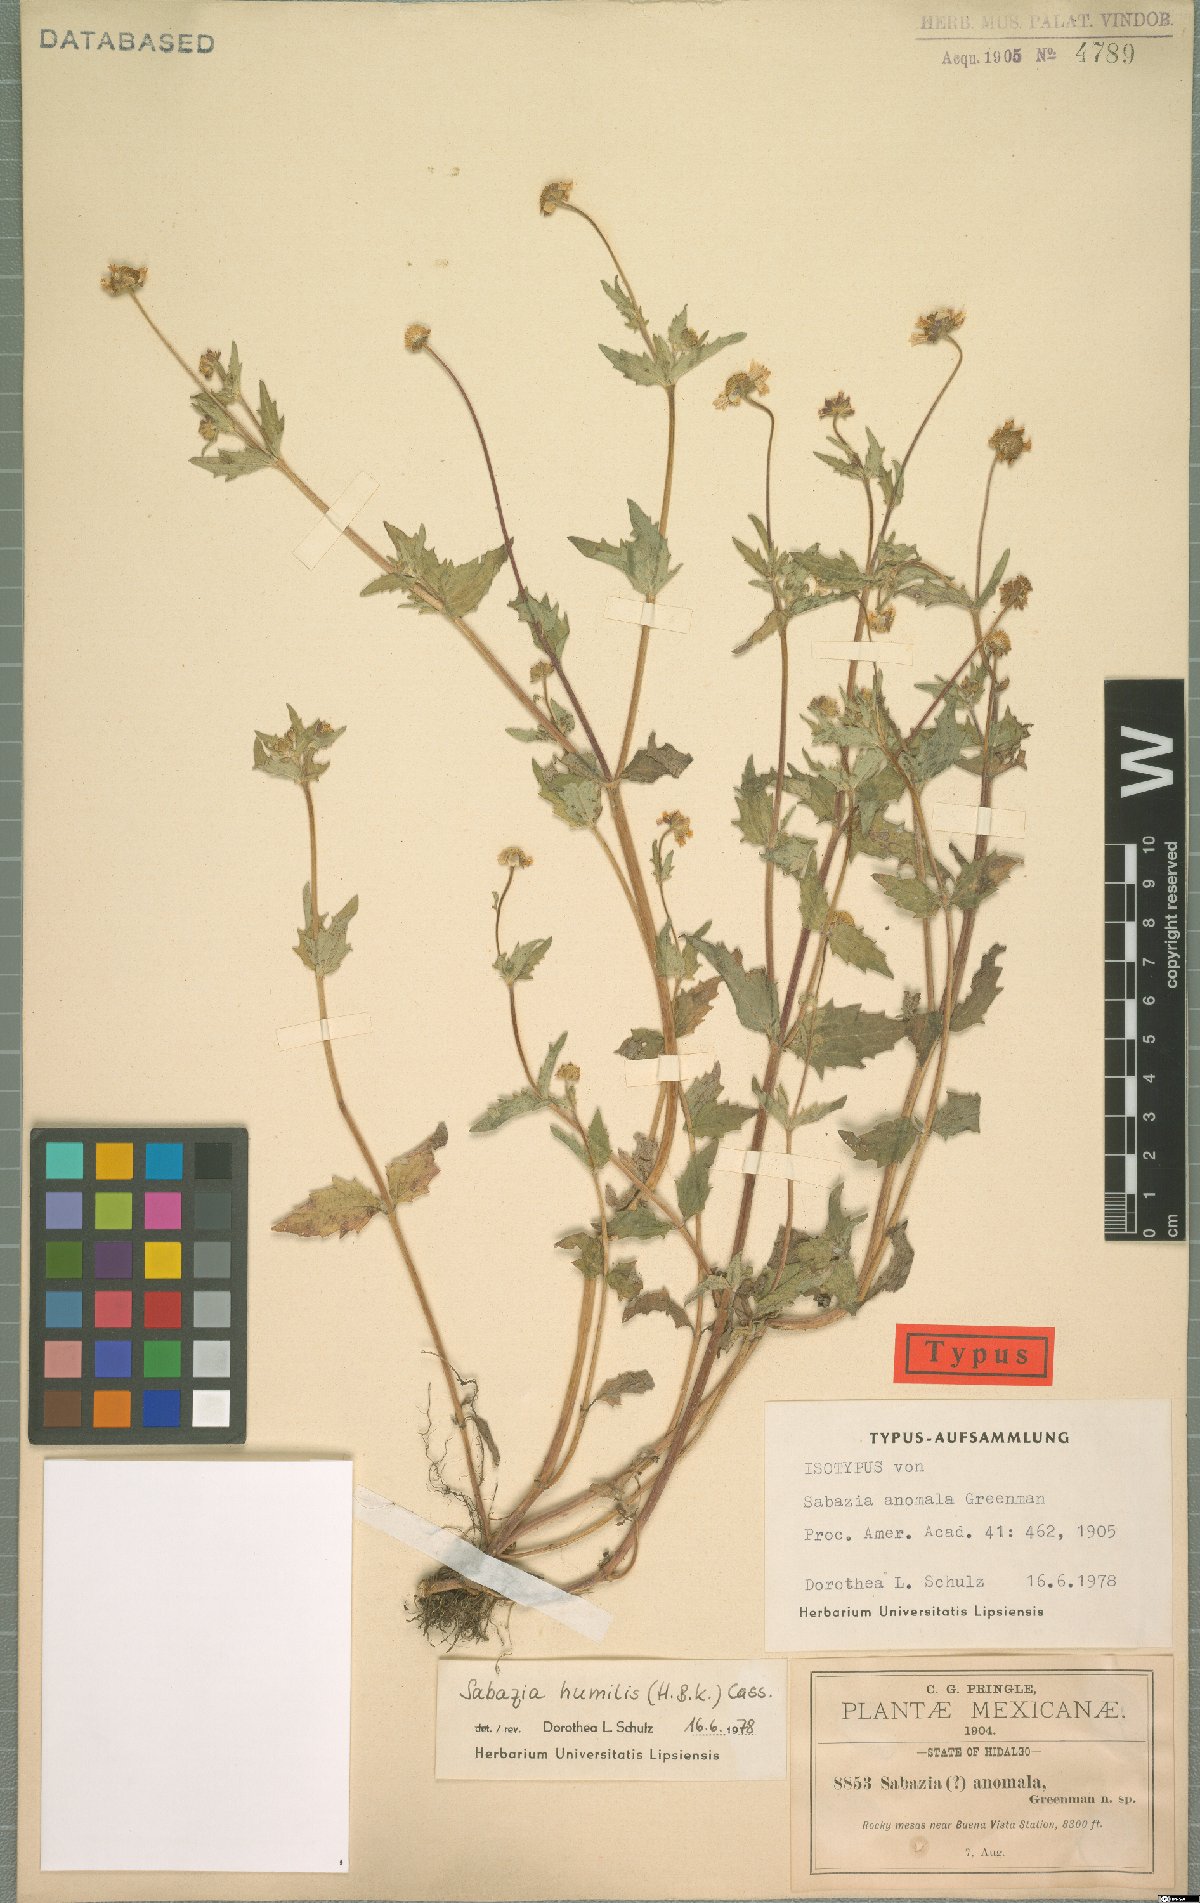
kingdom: Plantae
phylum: Tracheophyta
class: Magnoliopsida
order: Asterales
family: Asteraceae
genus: Sabazia
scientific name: Sabazia humilis
